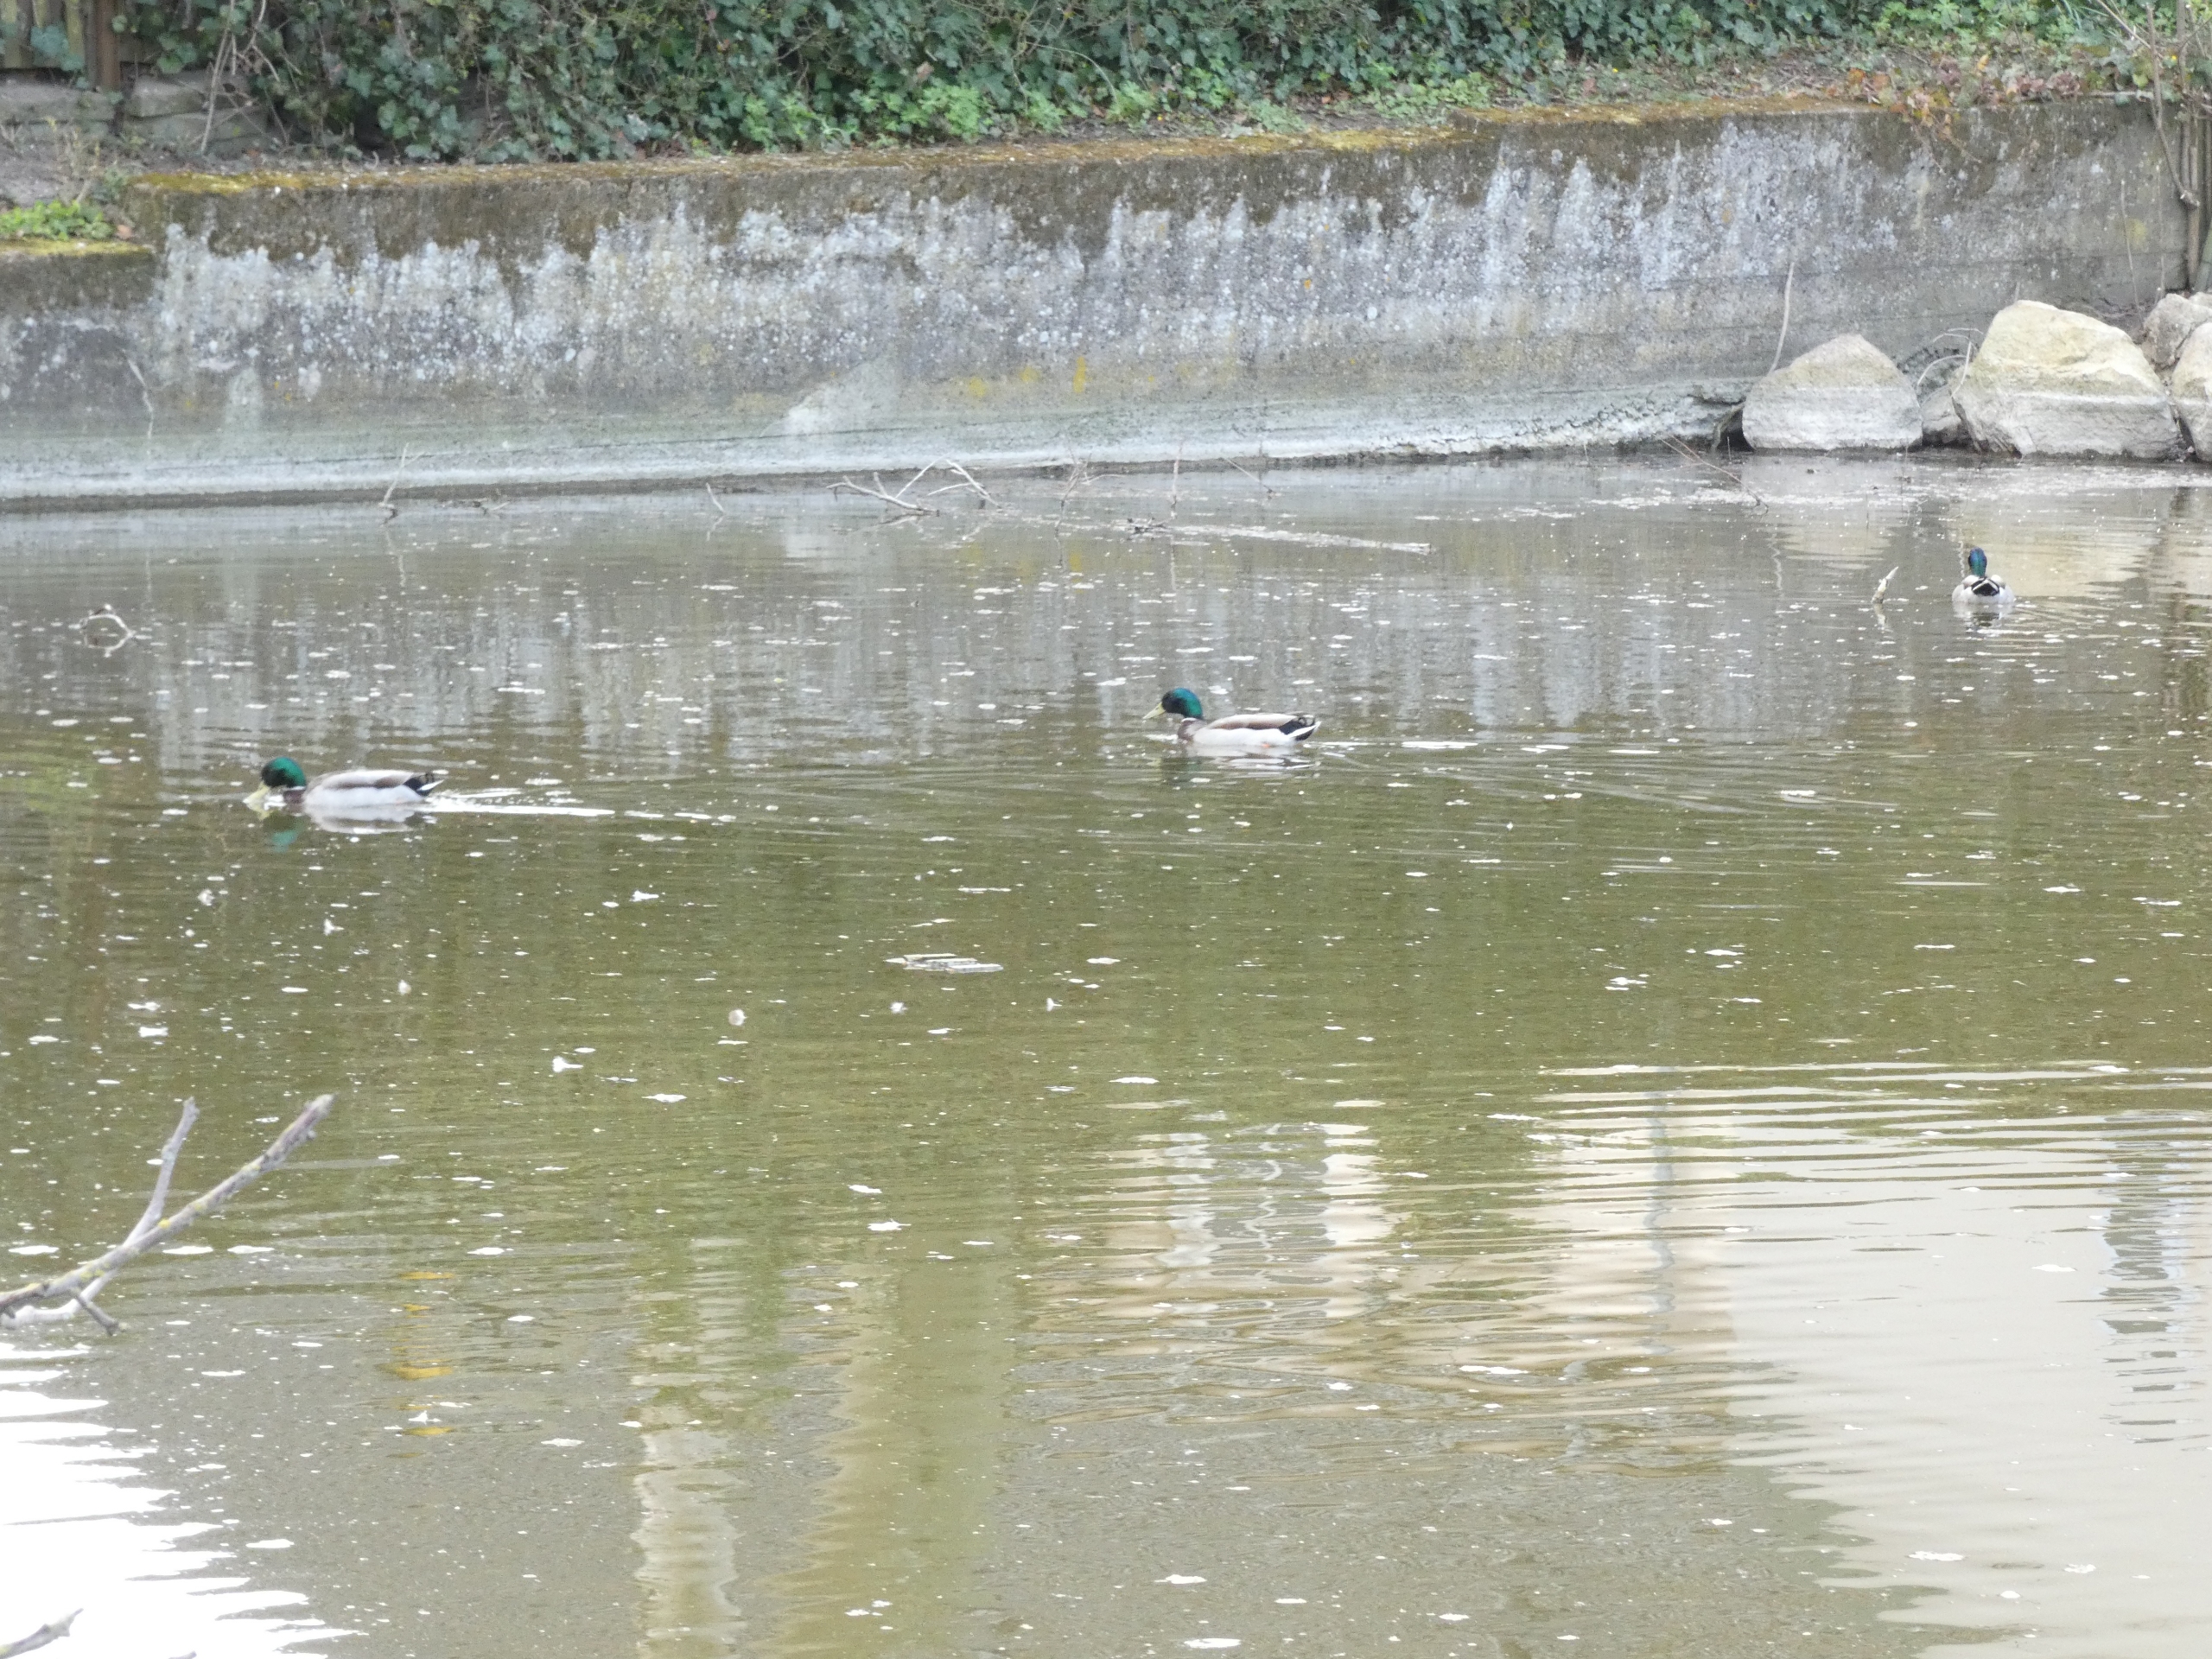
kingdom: Animalia
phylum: Chordata
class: Aves
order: Anseriformes
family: Anatidae
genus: Anas
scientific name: Anas platyrhynchos
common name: Gråand
